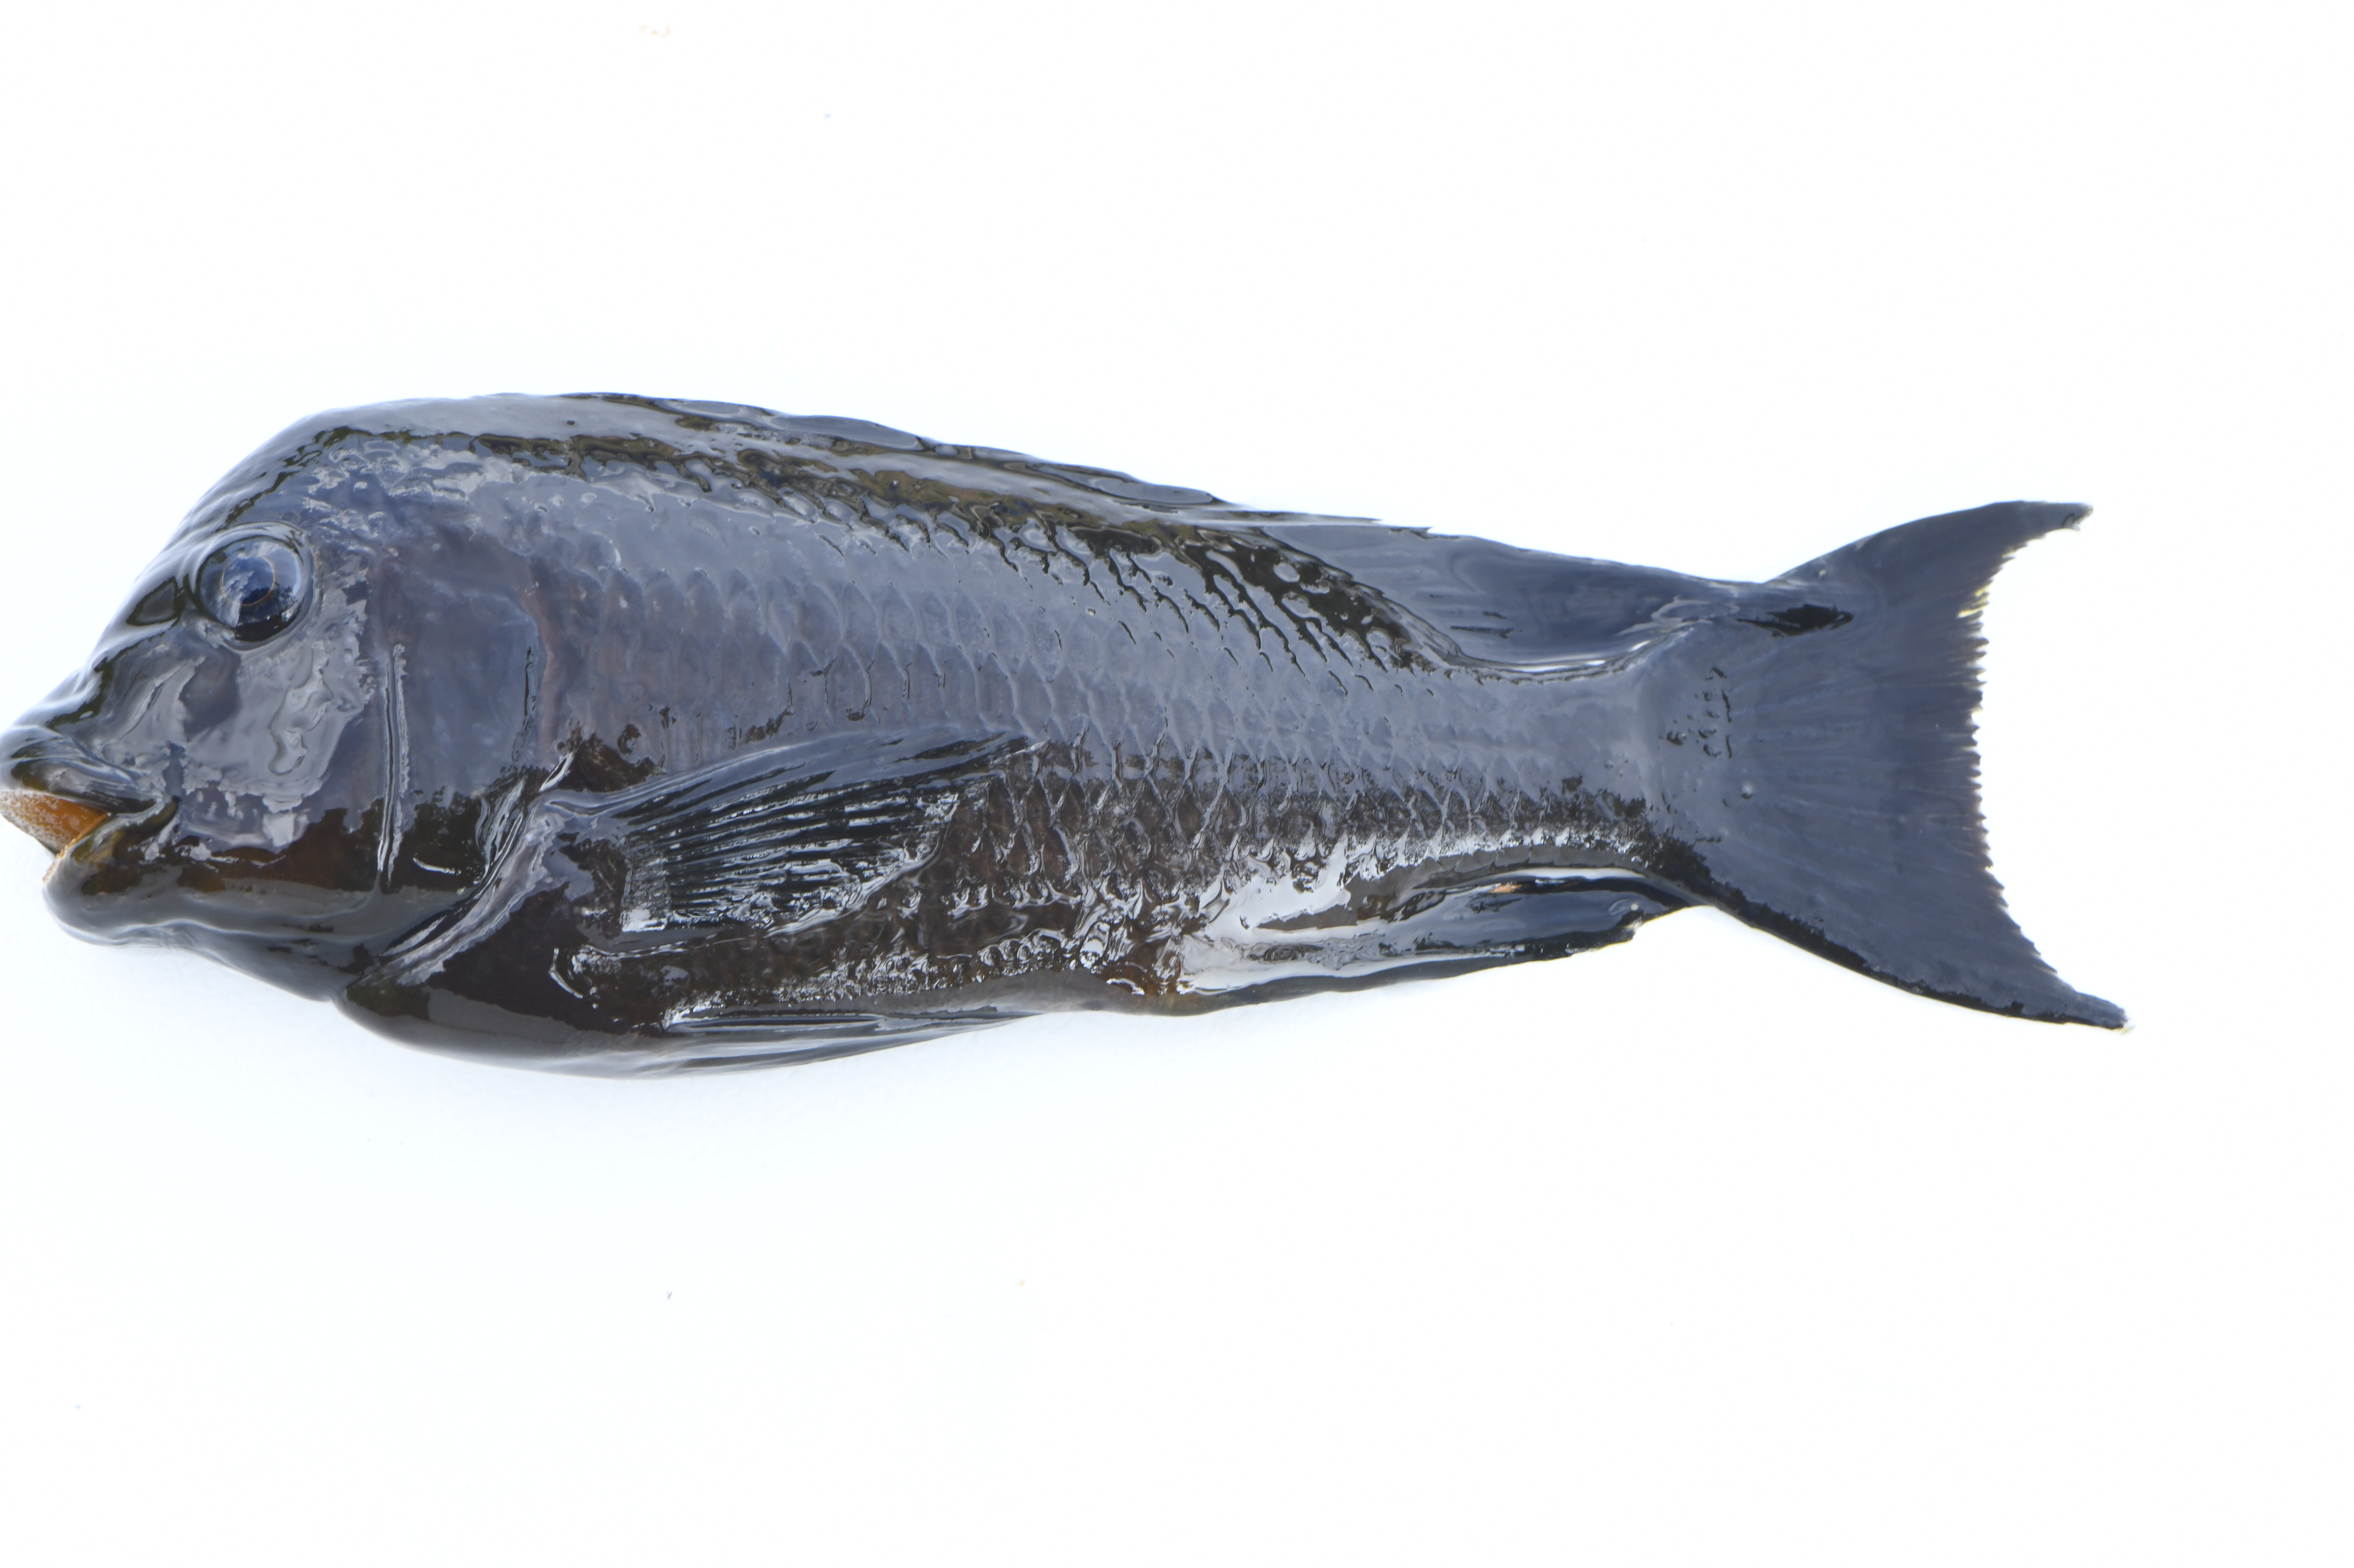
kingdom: Animalia
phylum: Chordata
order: Perciformes
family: Cichlidae
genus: Petrochromis
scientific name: Petrochromis trewavasae
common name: Threadfin cichlid
